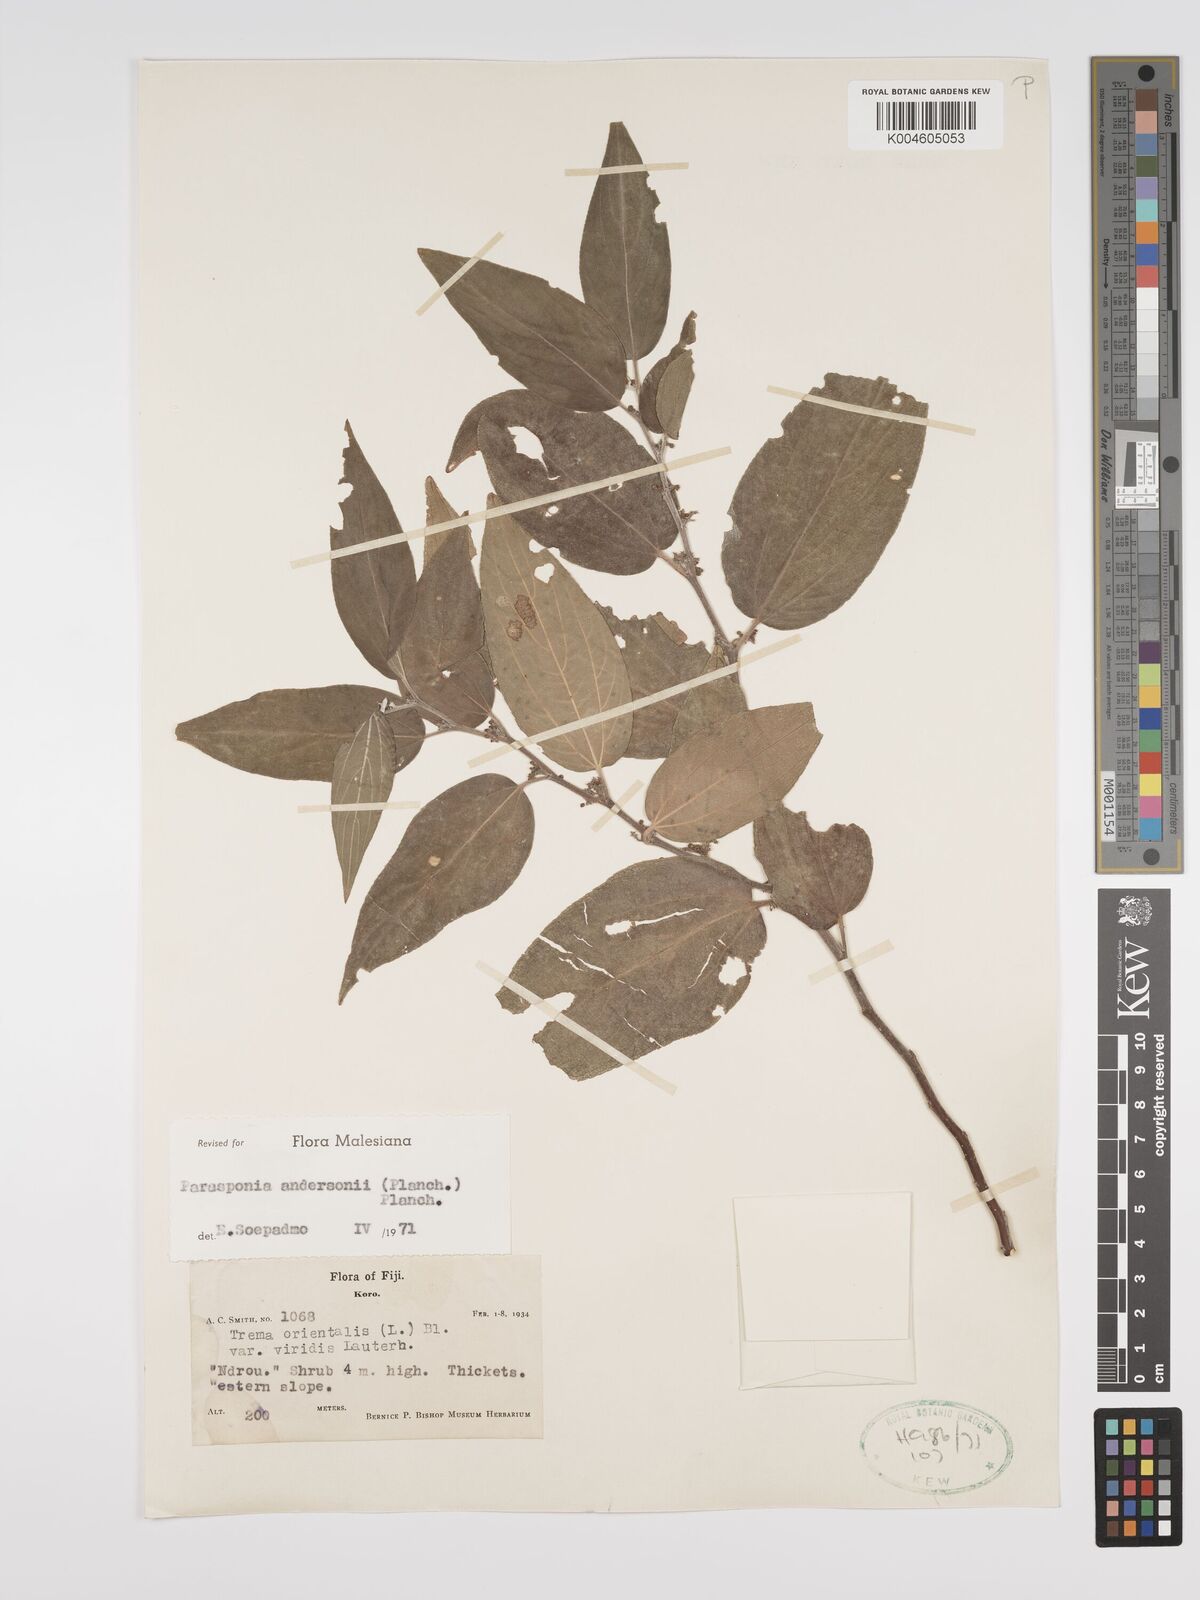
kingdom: Plantae
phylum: Tracheophyta
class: Magnoliopsida
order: Rosales
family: Cannabaceae
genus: Trema
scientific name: Trema andersonii
